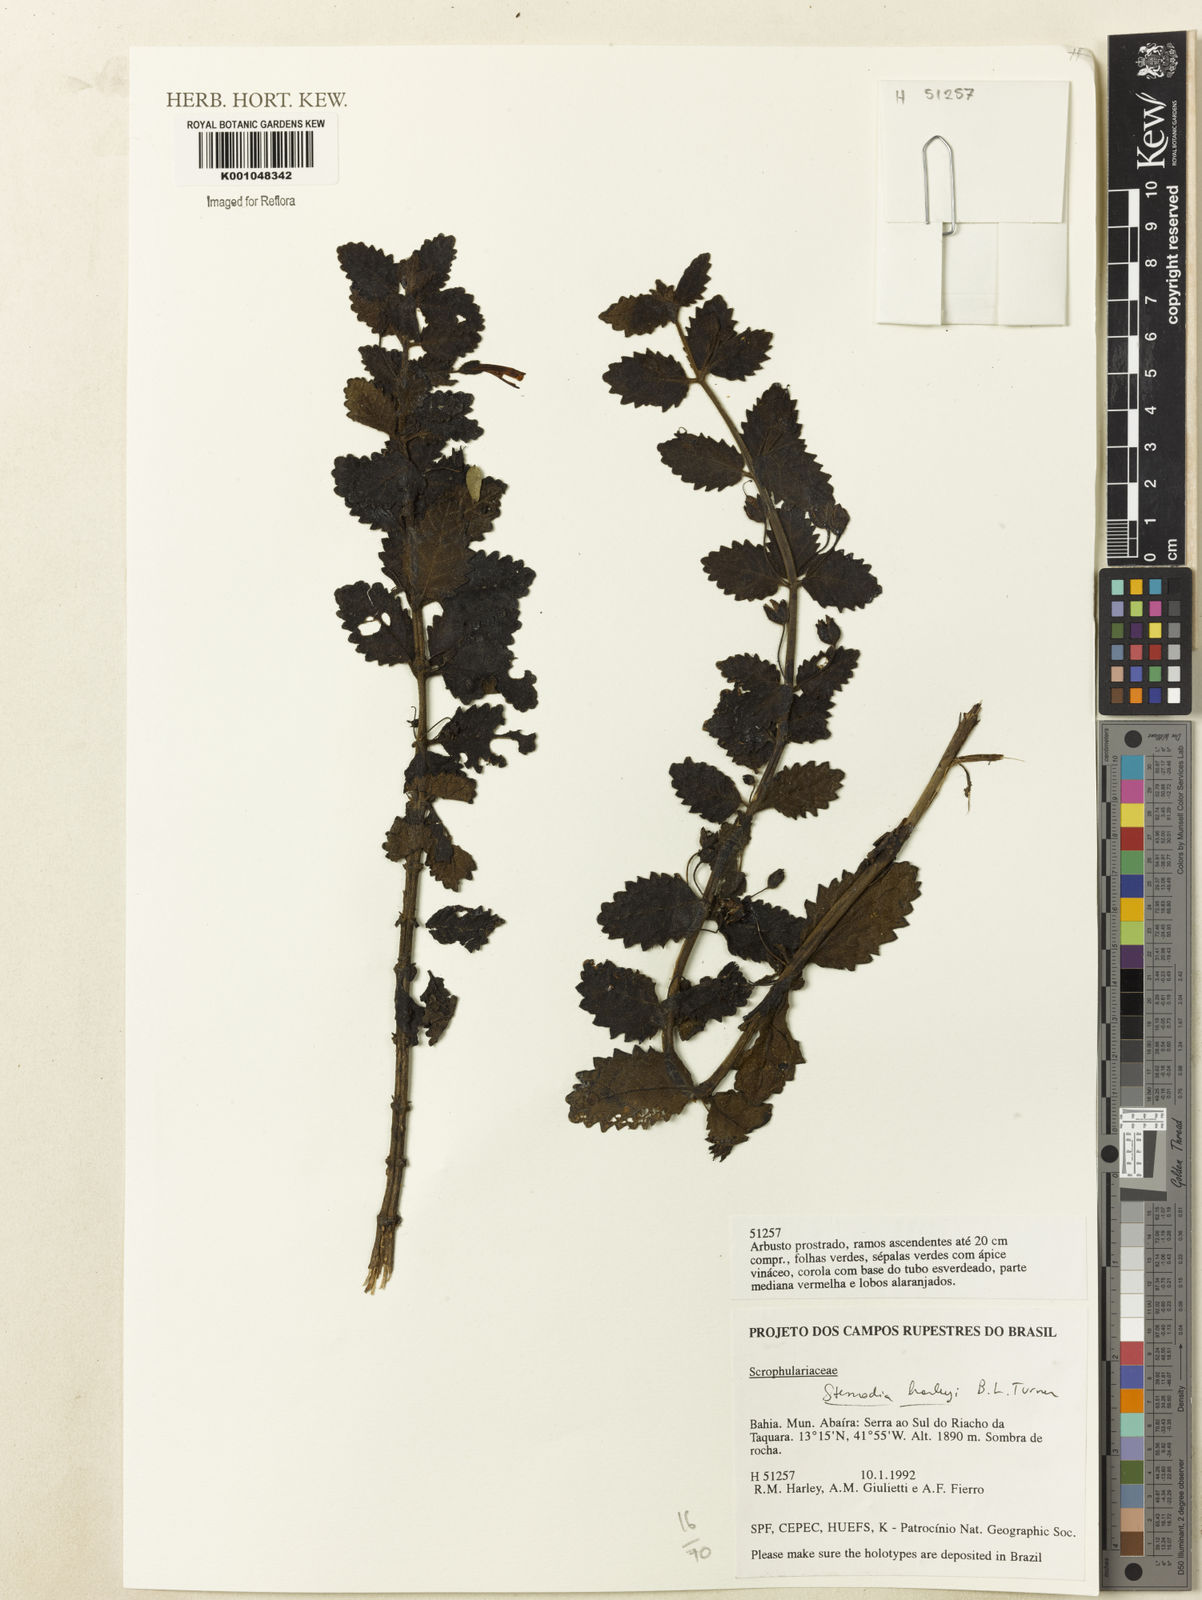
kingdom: Plantae
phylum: Tracheophyta
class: Magnoliopsida
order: Lamiales
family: Plantaginaceae
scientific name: Plantaginaceae
